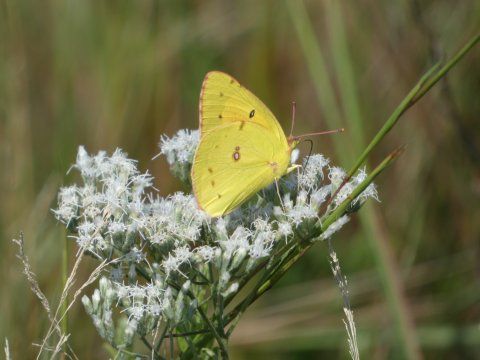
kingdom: Animalia
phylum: Arthropoda
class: Insecta
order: Lepidoptera
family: Pieridae
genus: Colias
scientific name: Colias eurytheme
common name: Orange Sulphur
